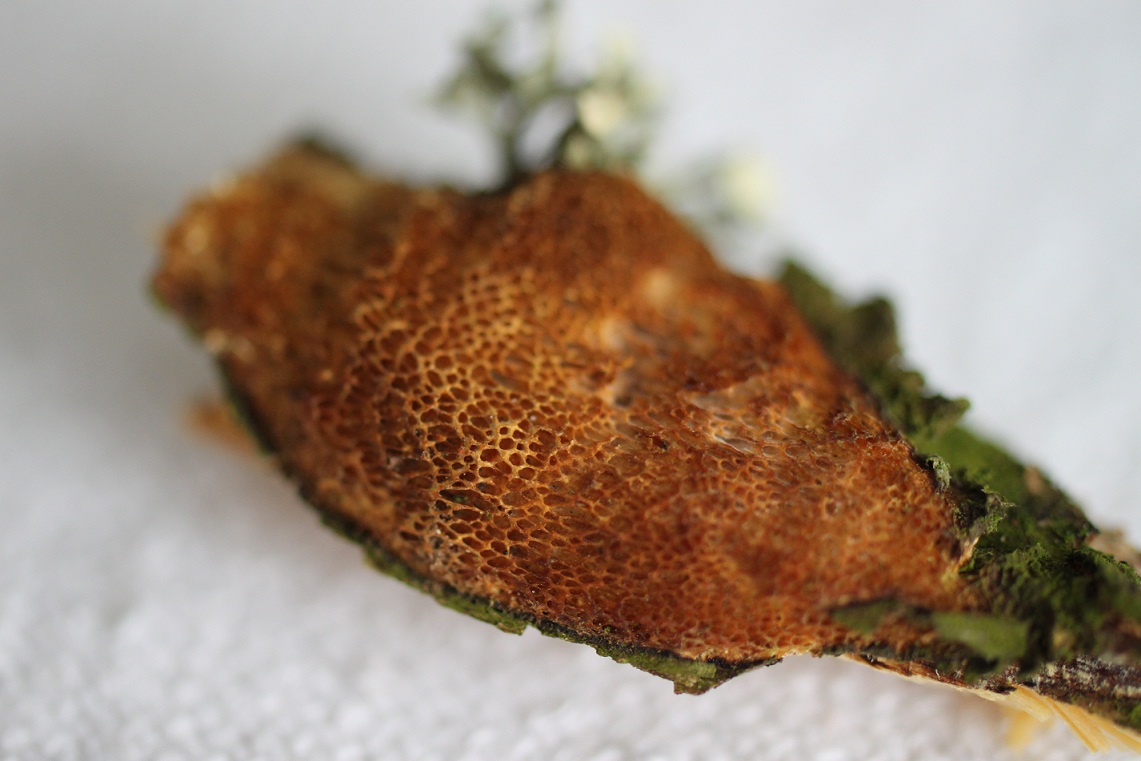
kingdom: Fungi
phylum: Basidiomycota
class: Agaricomycetes
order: Polyporales
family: Polyporaceae
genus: Szczepkamyces
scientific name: Szczepkamyces campestris
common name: hasselporesvamp
